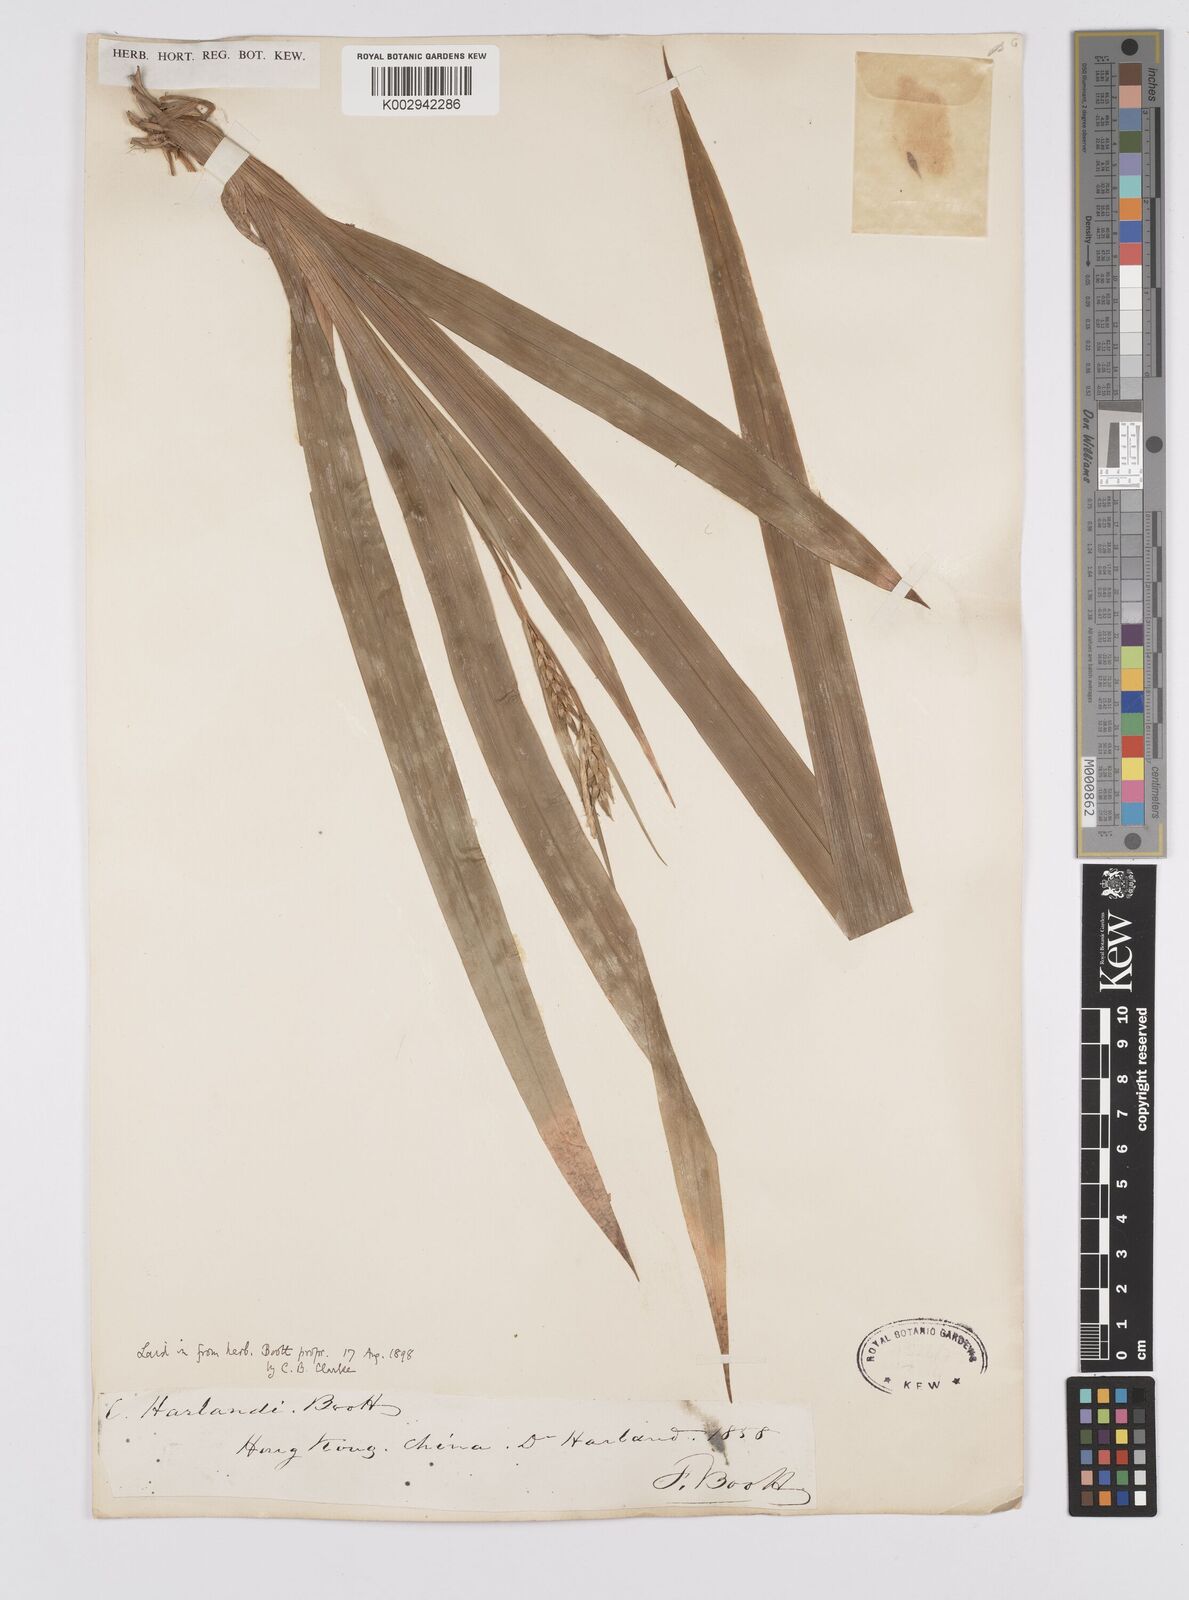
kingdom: Plantae
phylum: Tracheophyta
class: Liliopsida
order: Poales
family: Cyperaceae
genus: Carex
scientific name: Carex
